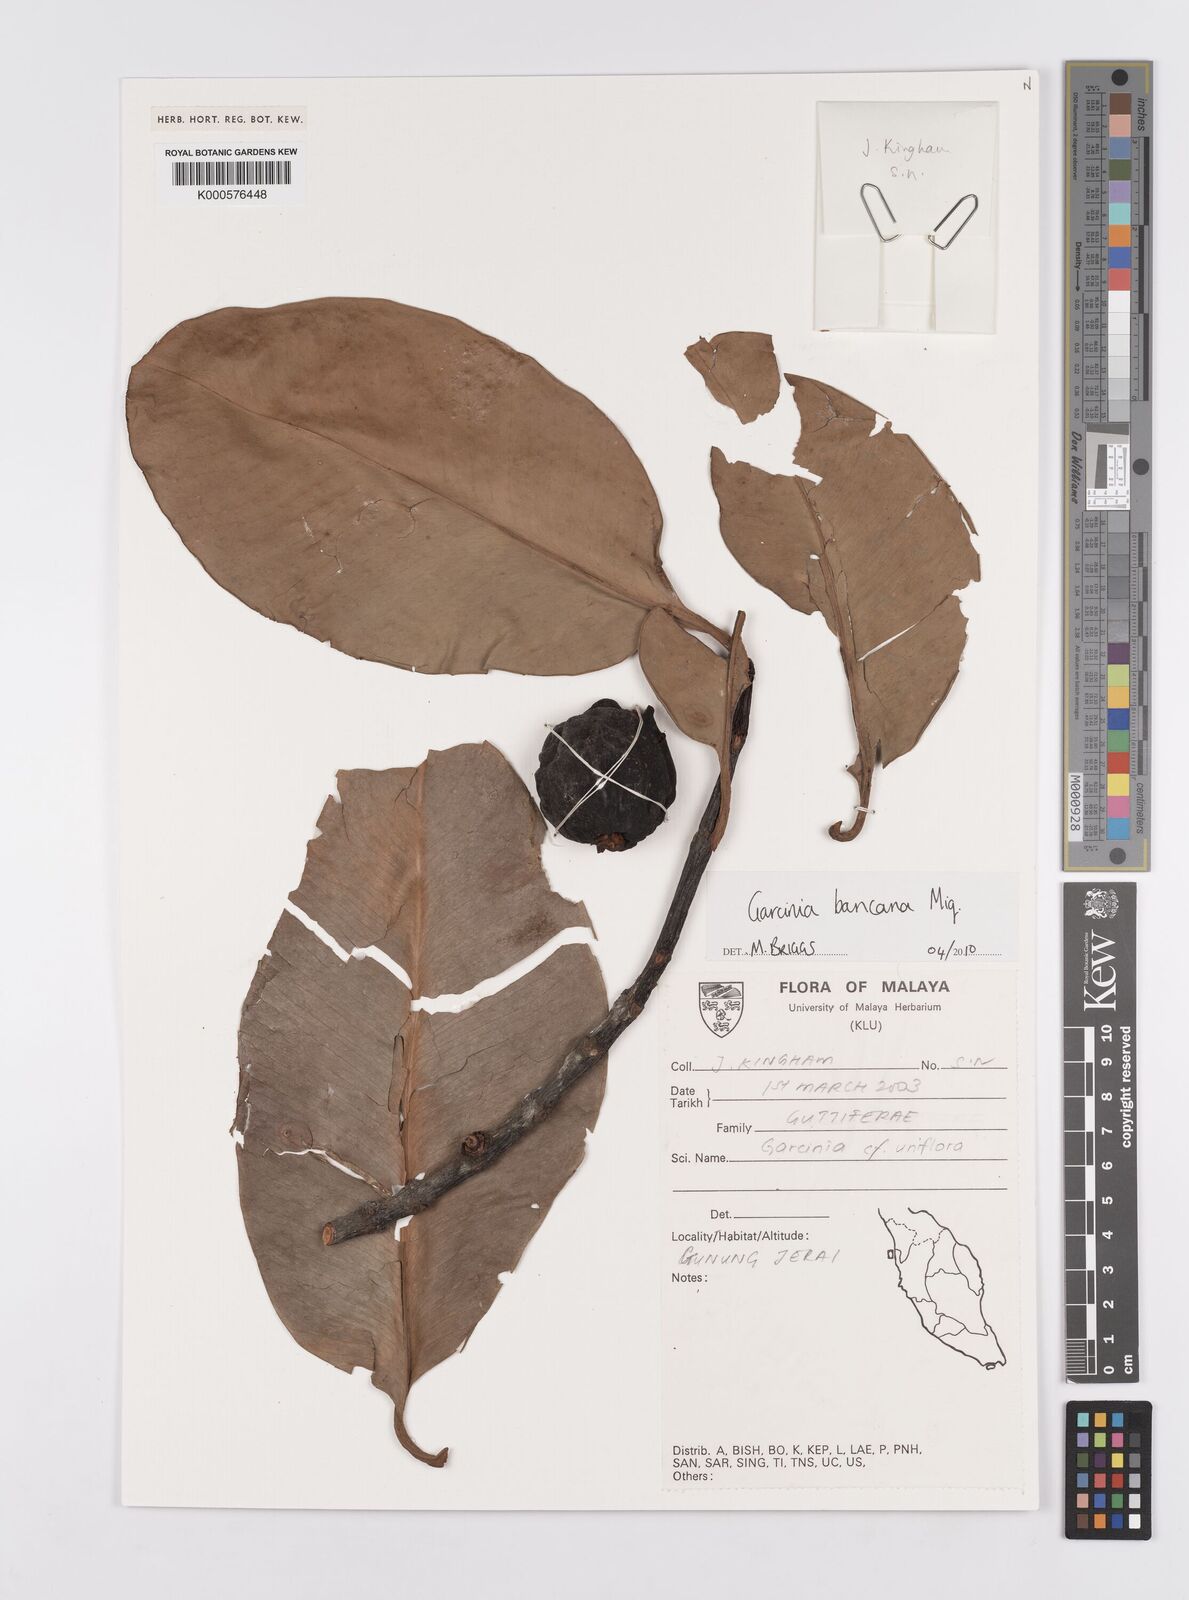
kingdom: Plantae
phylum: Tracheophyta
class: Magnoliopsida
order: Malpighiales
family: Clusiaceae
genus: Garcinia
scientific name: Garcinia bancana
